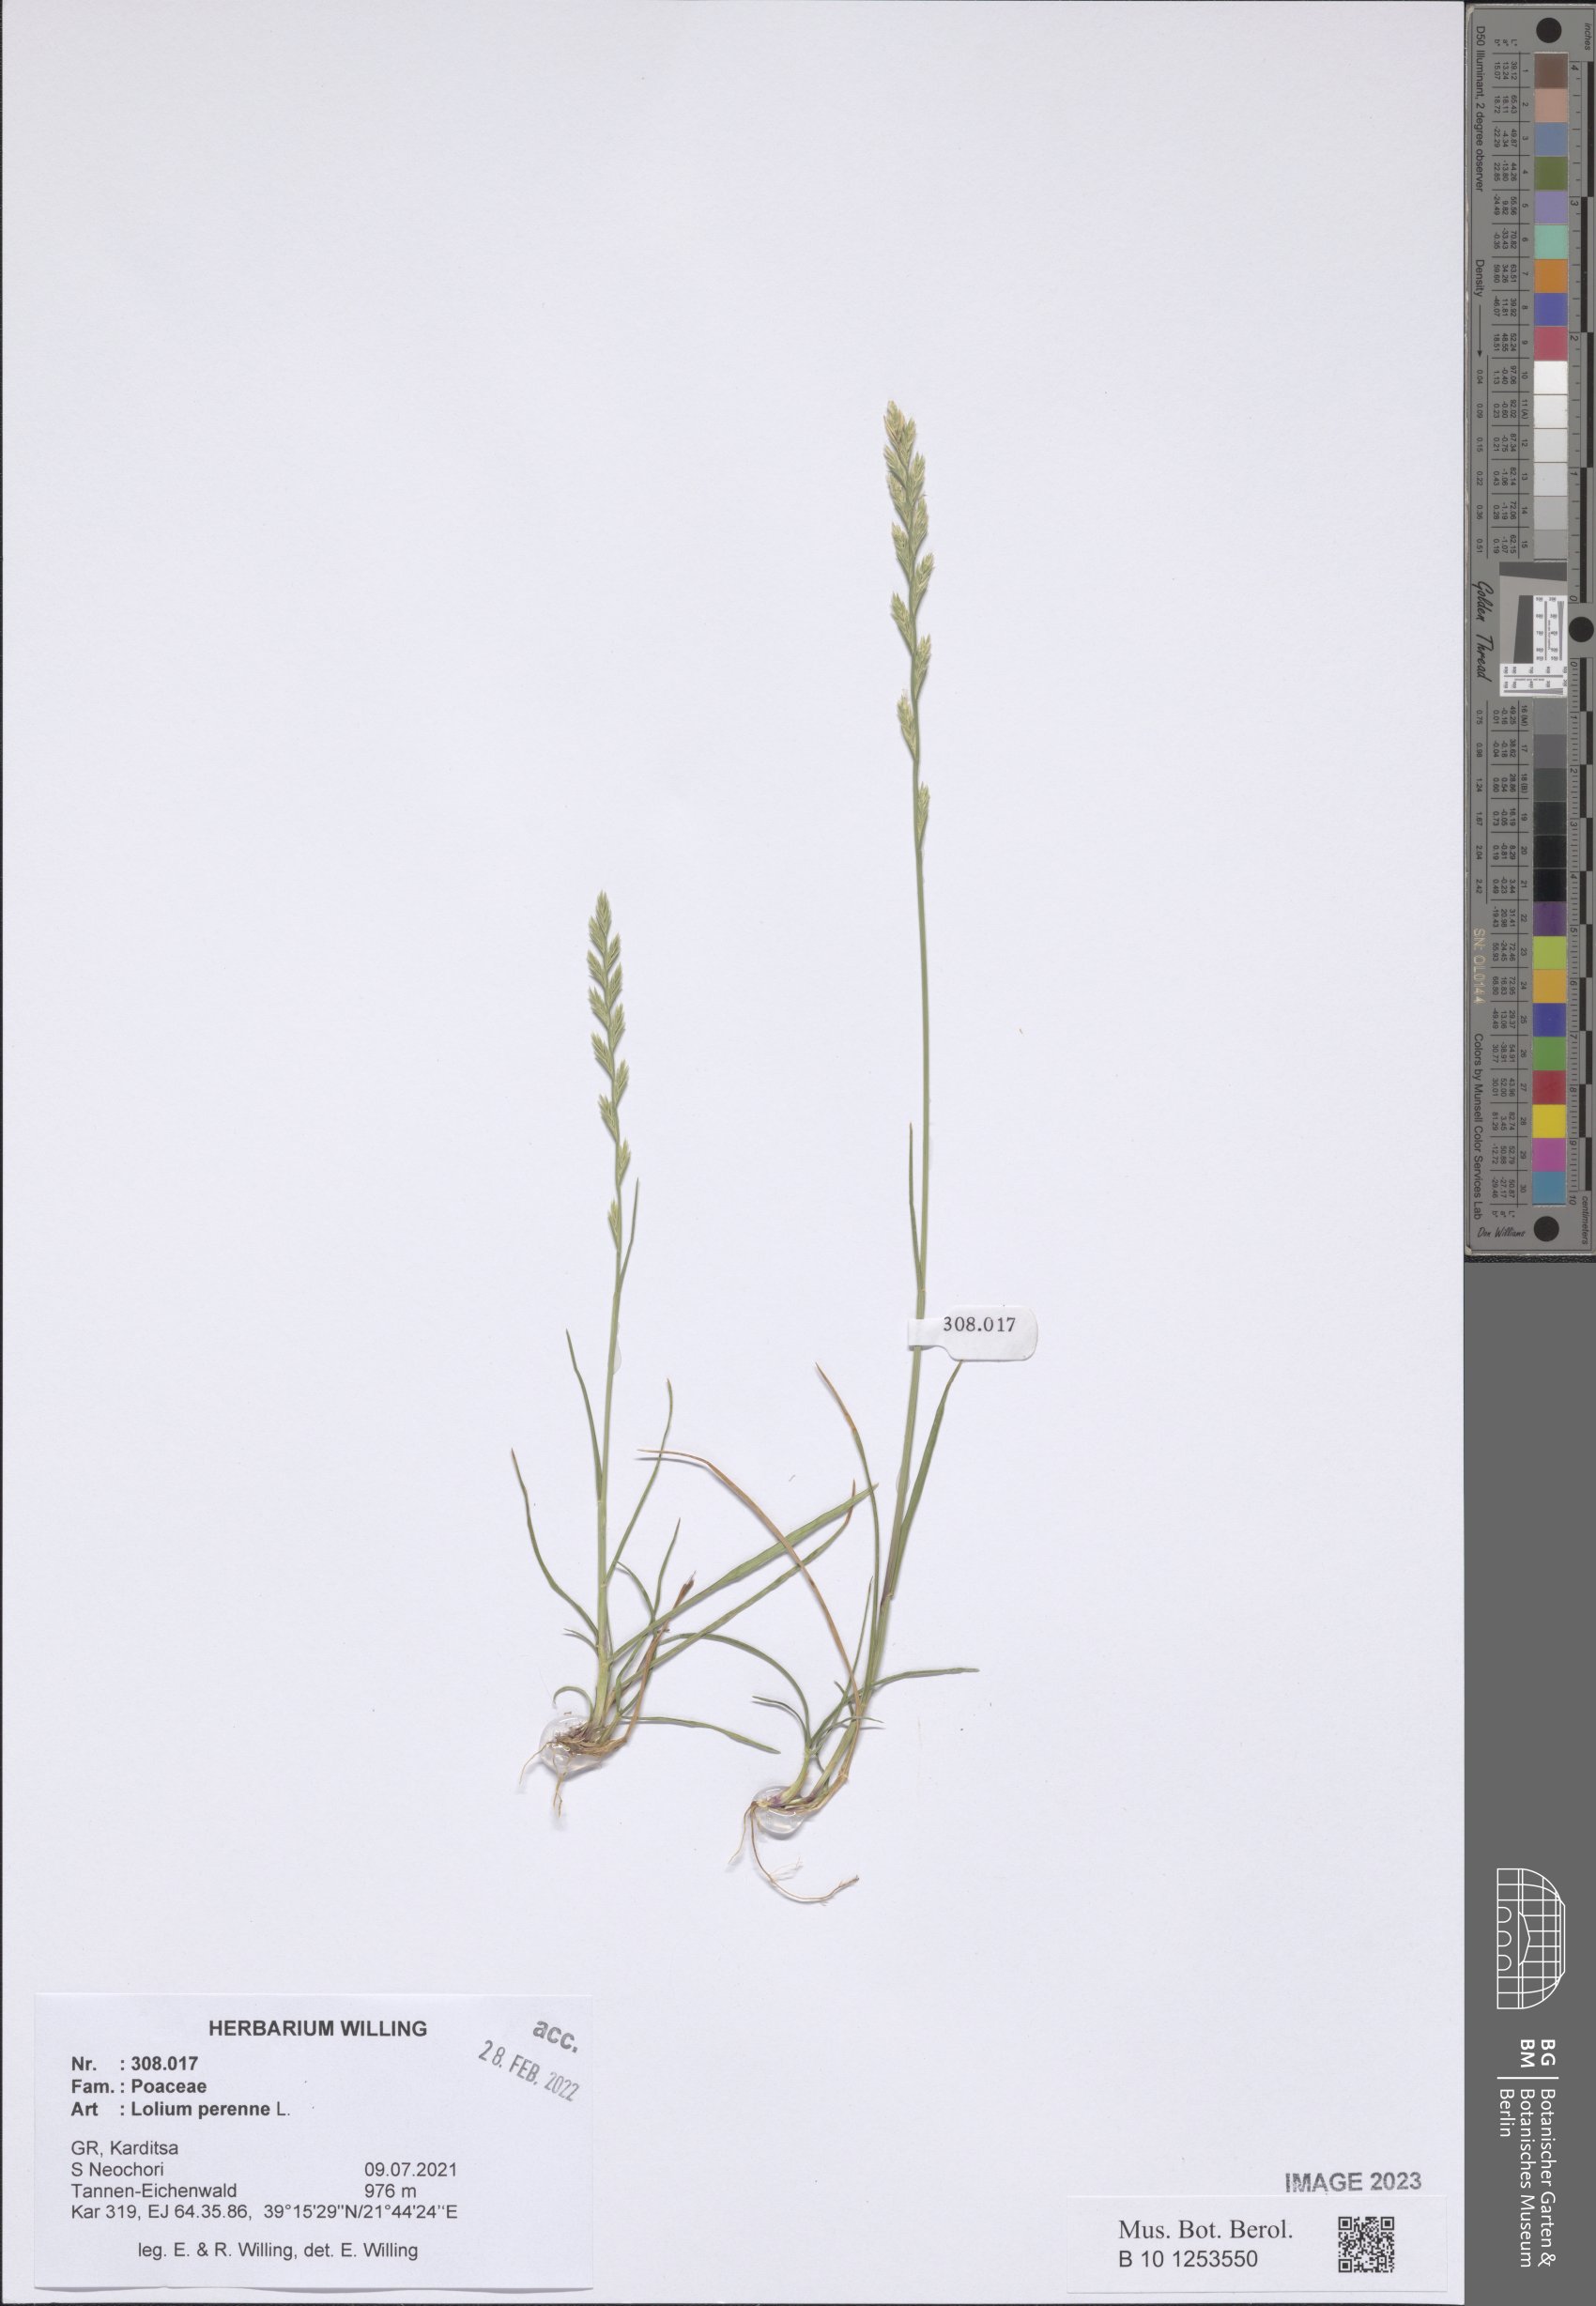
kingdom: Plantae
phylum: Tracheophyta
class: Liliopsida
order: Poales
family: Poaceae
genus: Lolium
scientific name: Lolium perenne
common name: Perennial ryegrass
